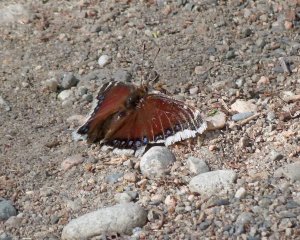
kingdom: Animalia
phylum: Arthropoda
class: Insecta
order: Lepidoptera
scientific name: Lepidoptera
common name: Butterflies
